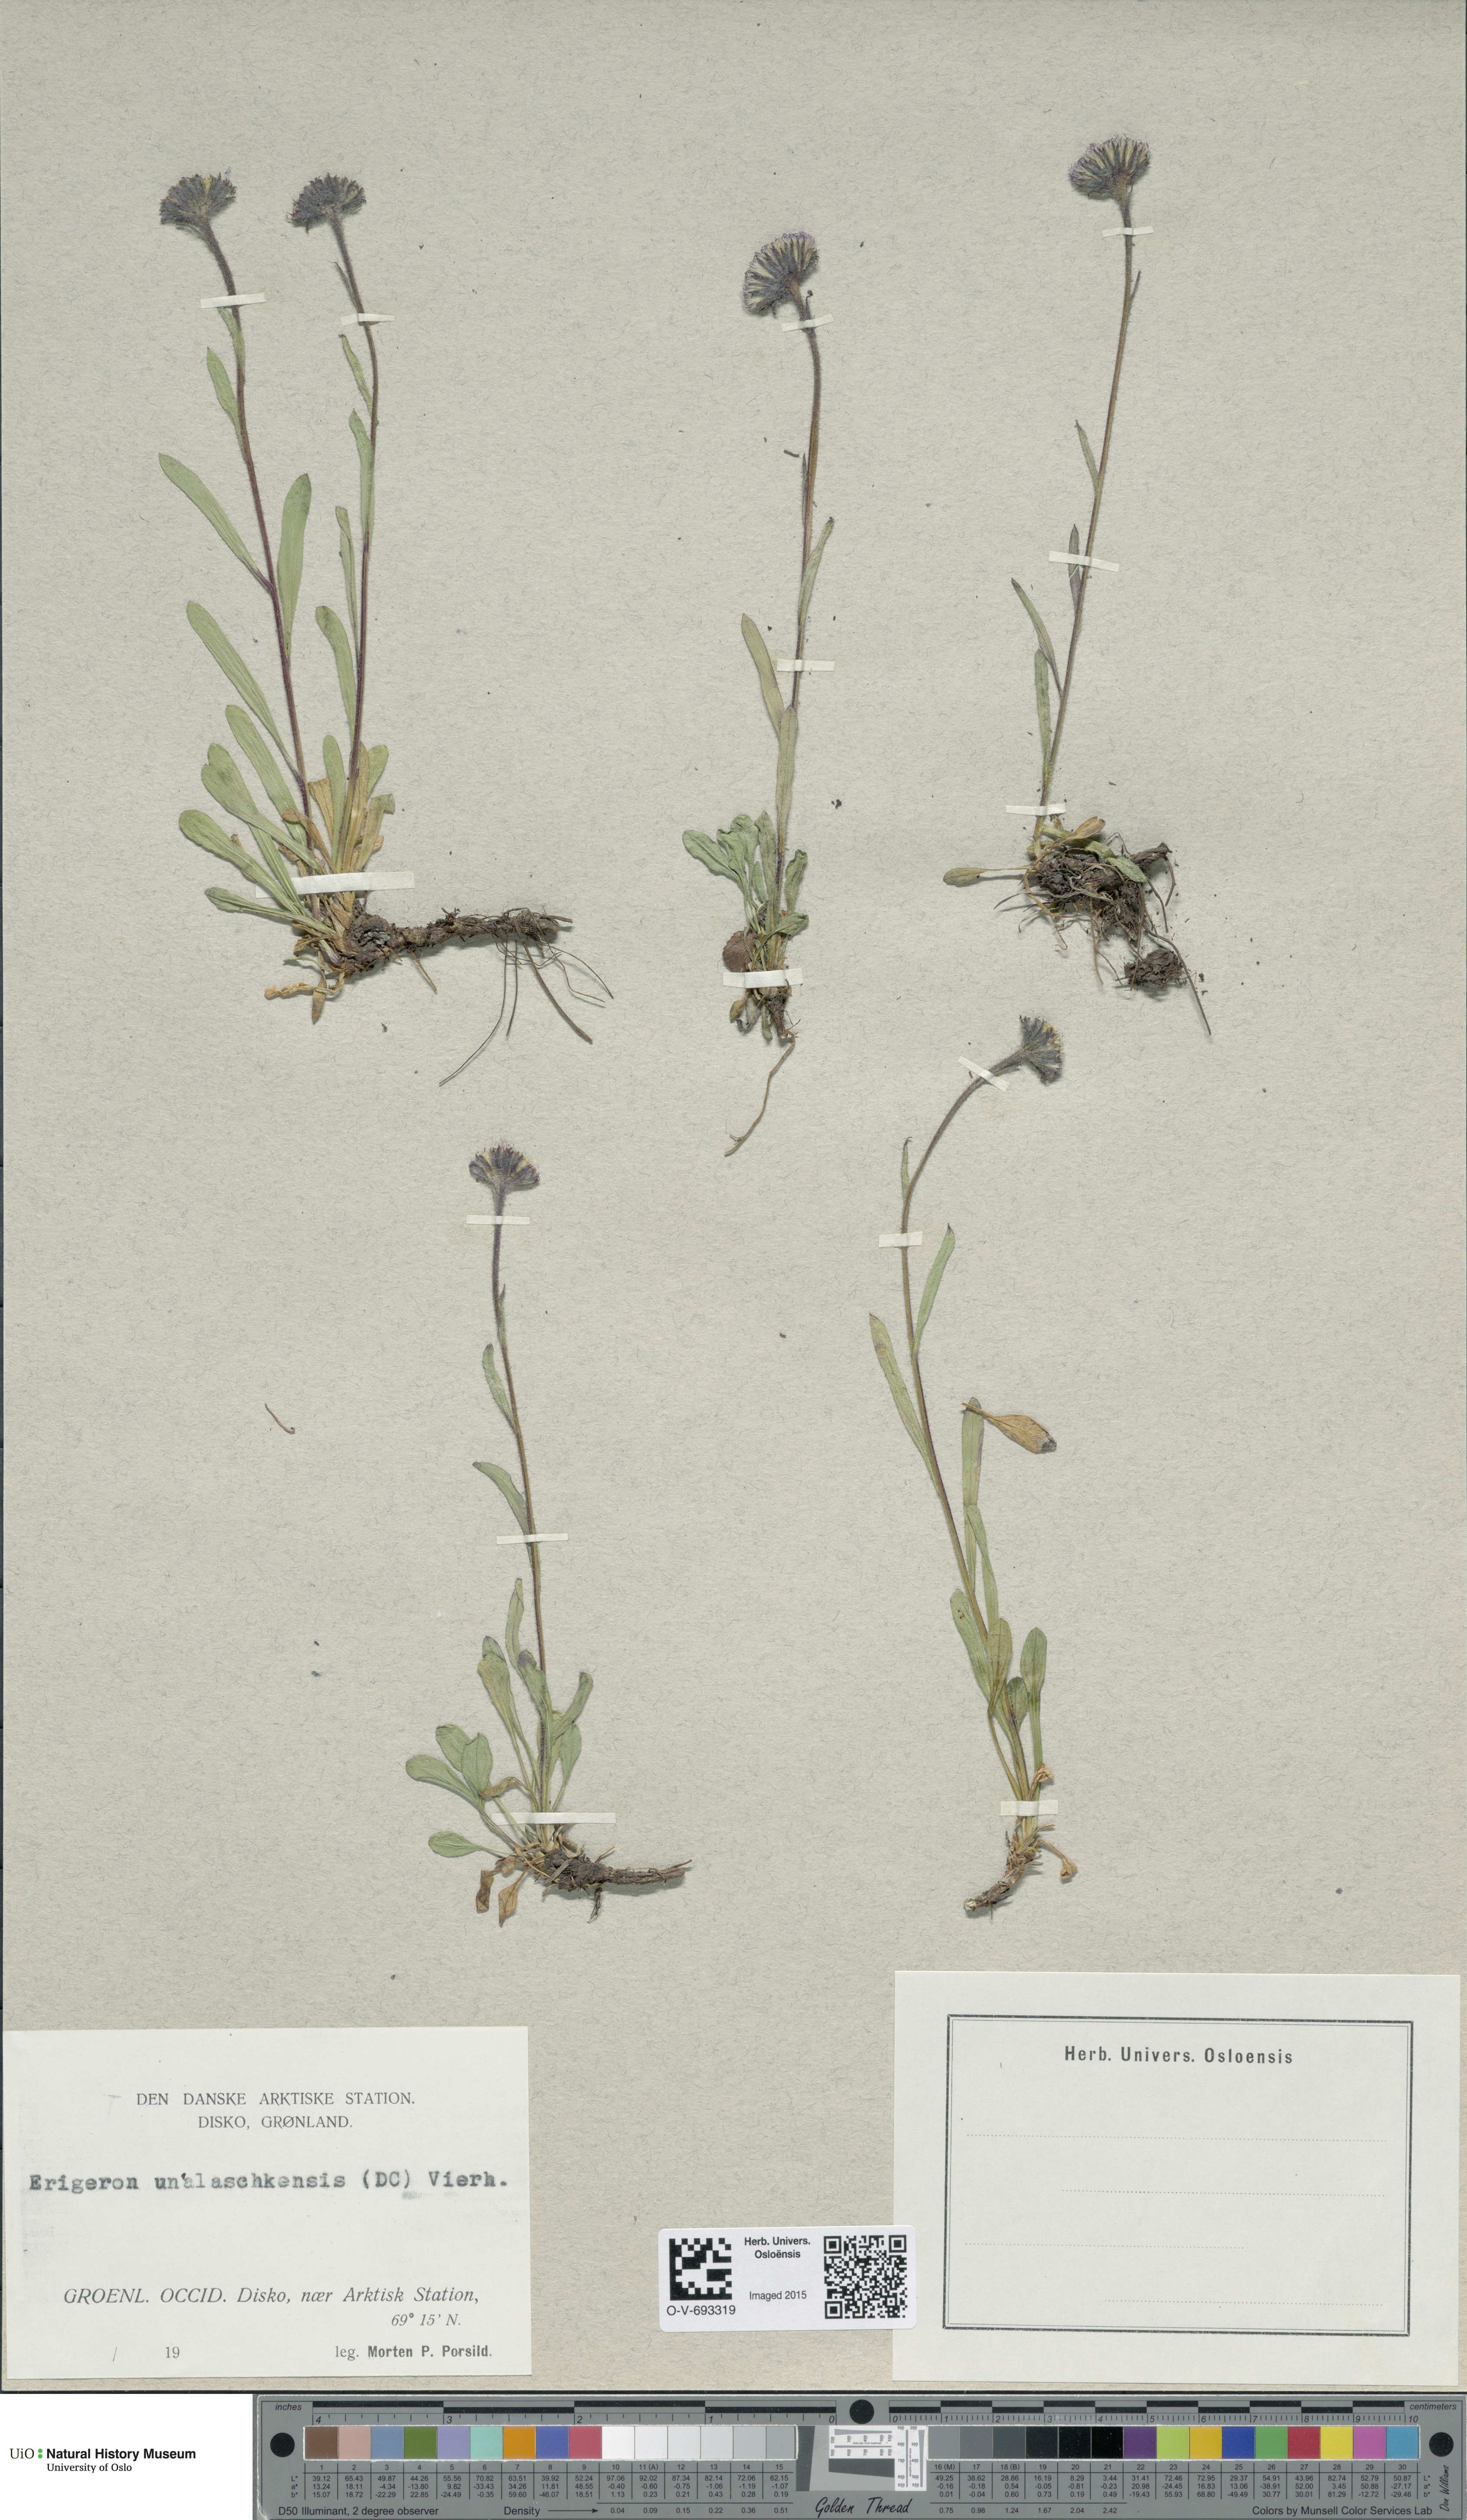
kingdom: Plantae
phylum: Tracheophyta
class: Magnoliopsida
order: Asterales
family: Asteraceae
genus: Erigeron
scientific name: Erigeron humilis
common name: Arctic-alpine fleabane
